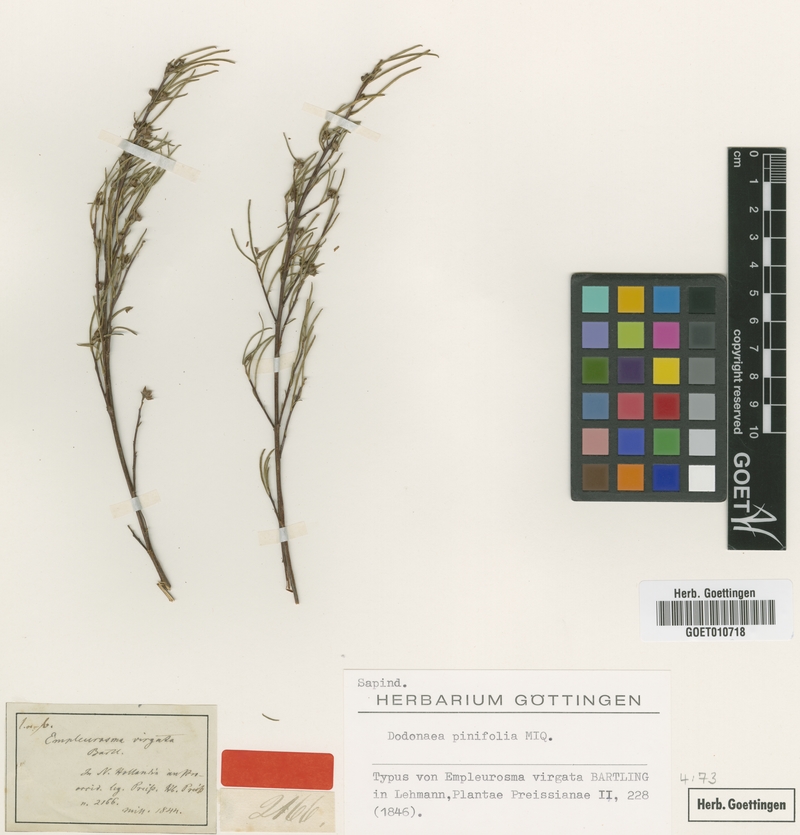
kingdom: Plantae
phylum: Tracheophyta
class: Magnoliopsida
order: Sapindales
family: Sapindaceae
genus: Dodonaea
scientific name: Dodonaea pinifolia
